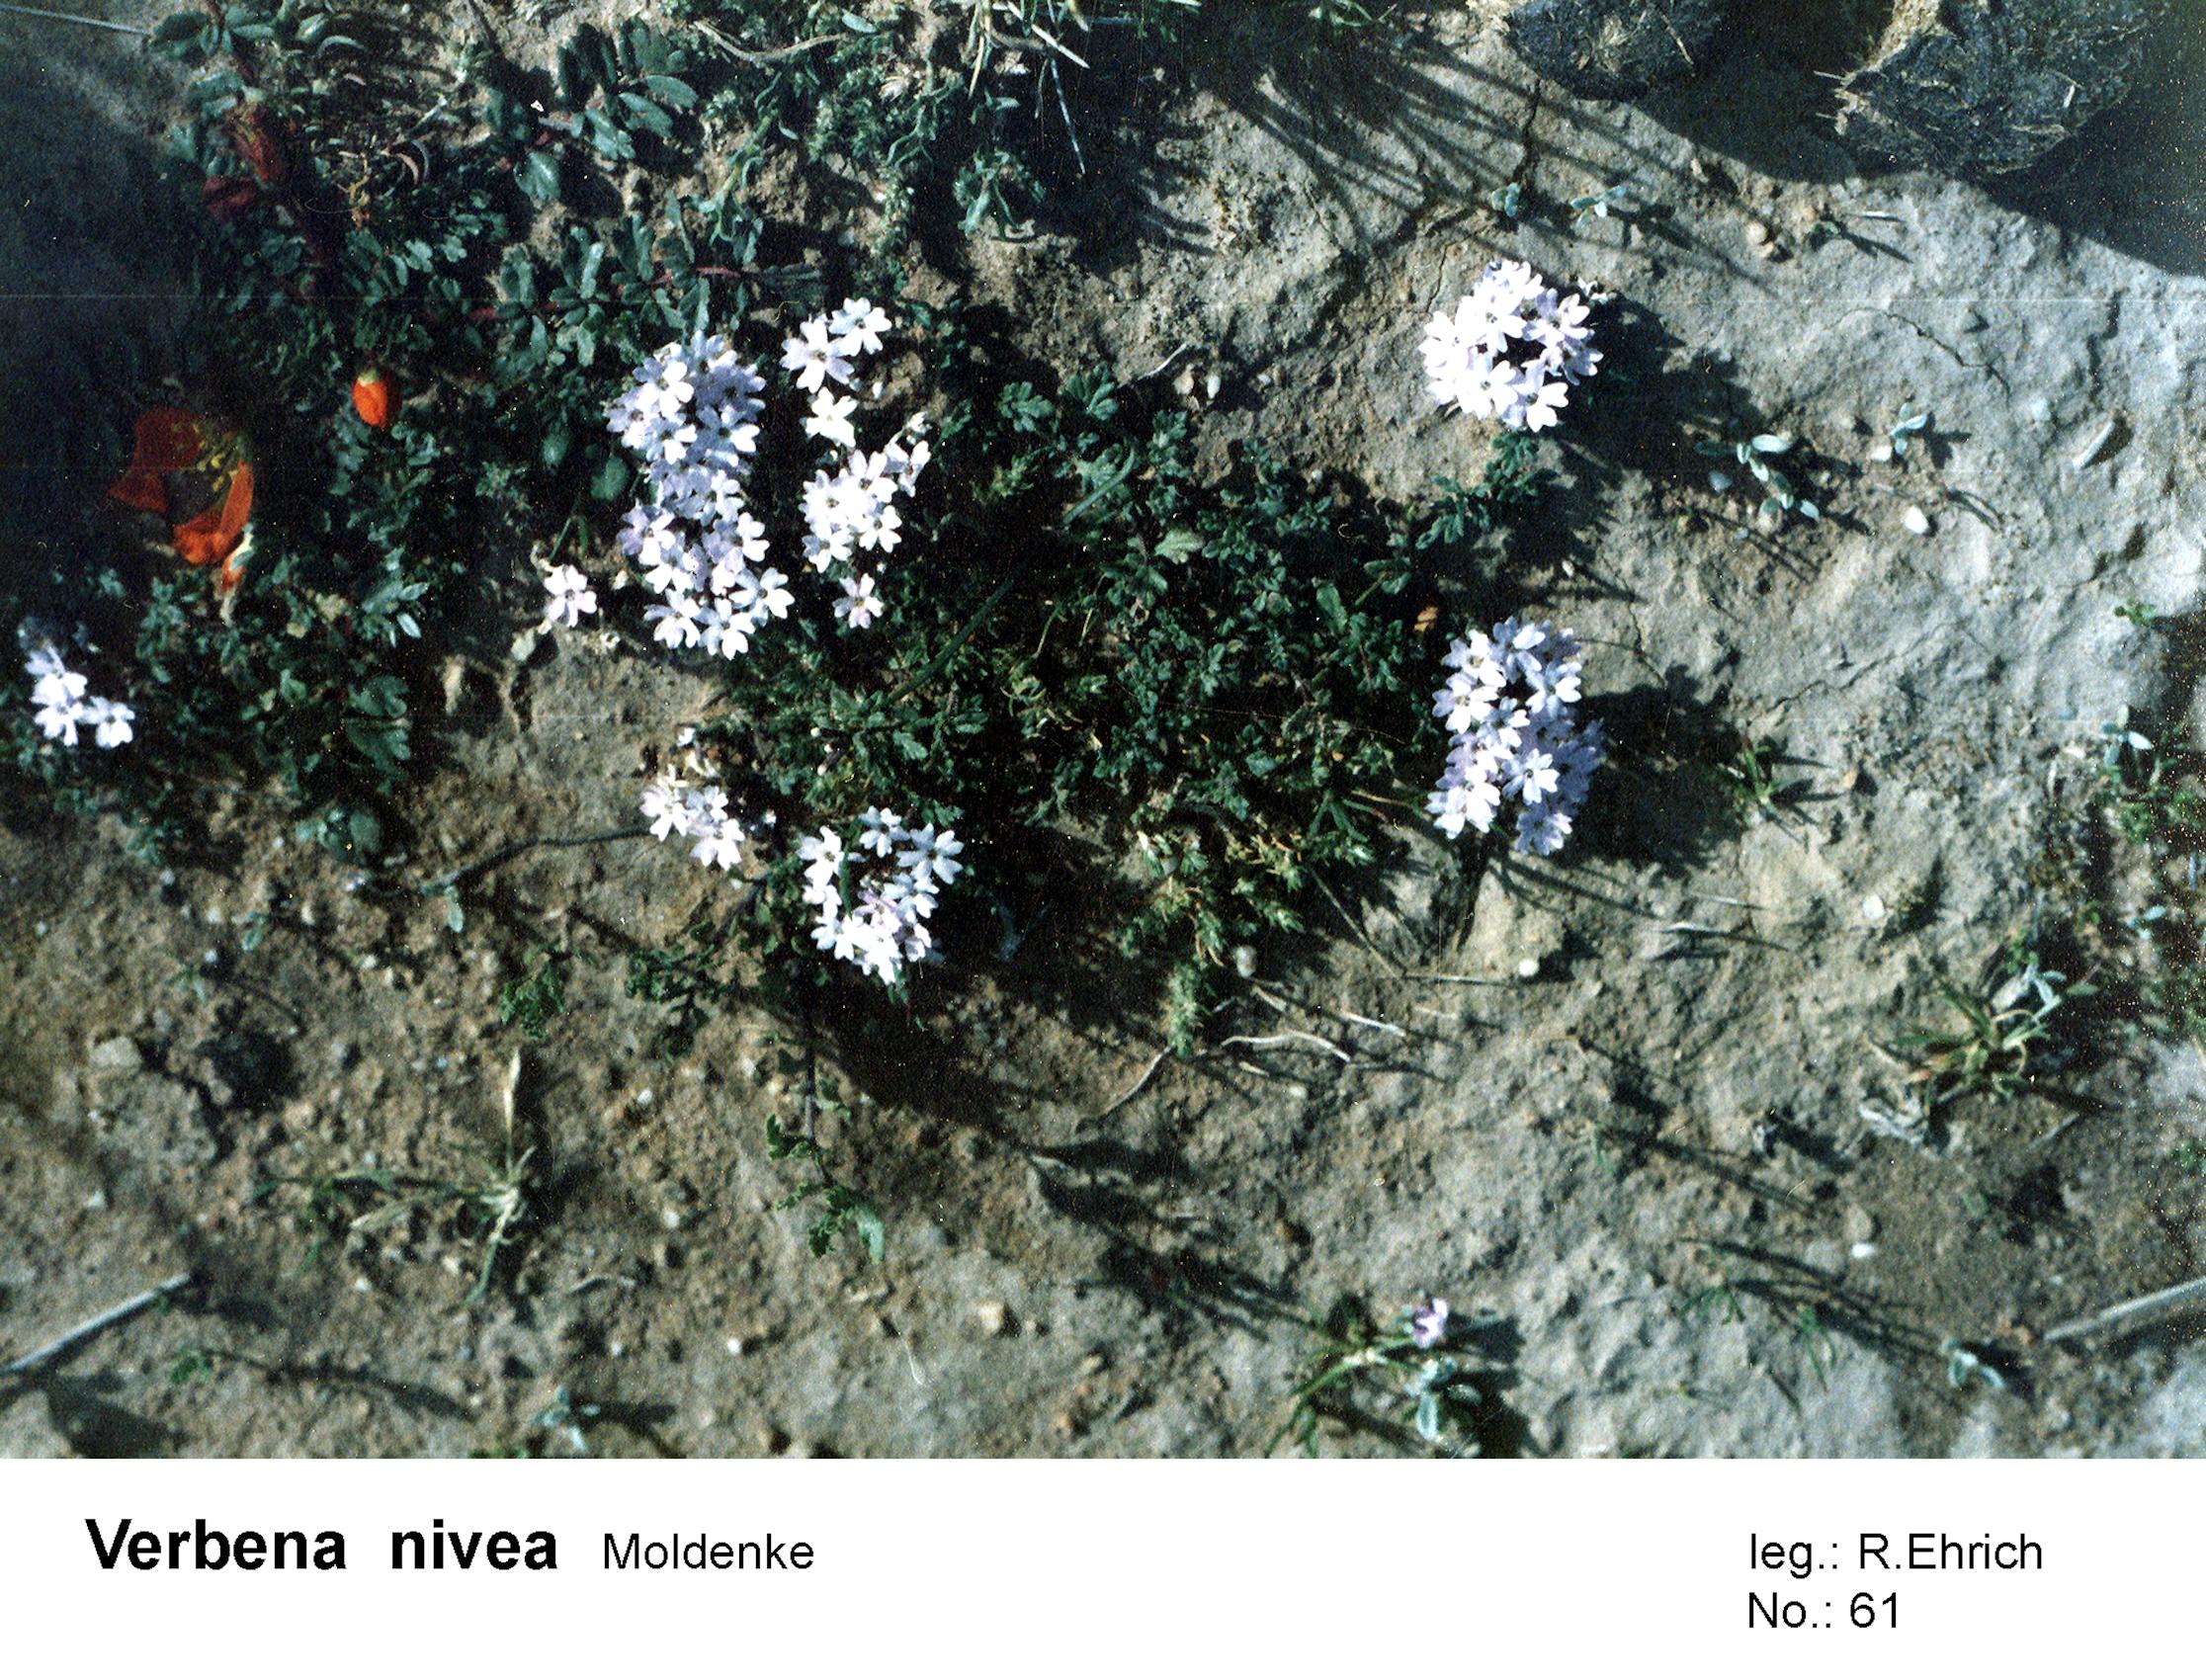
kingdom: Plantae
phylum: Tracheophyta
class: Magnoliopsida
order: Lamiales
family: Verbenaceae
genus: Verbena
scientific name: Verbena microphylla
